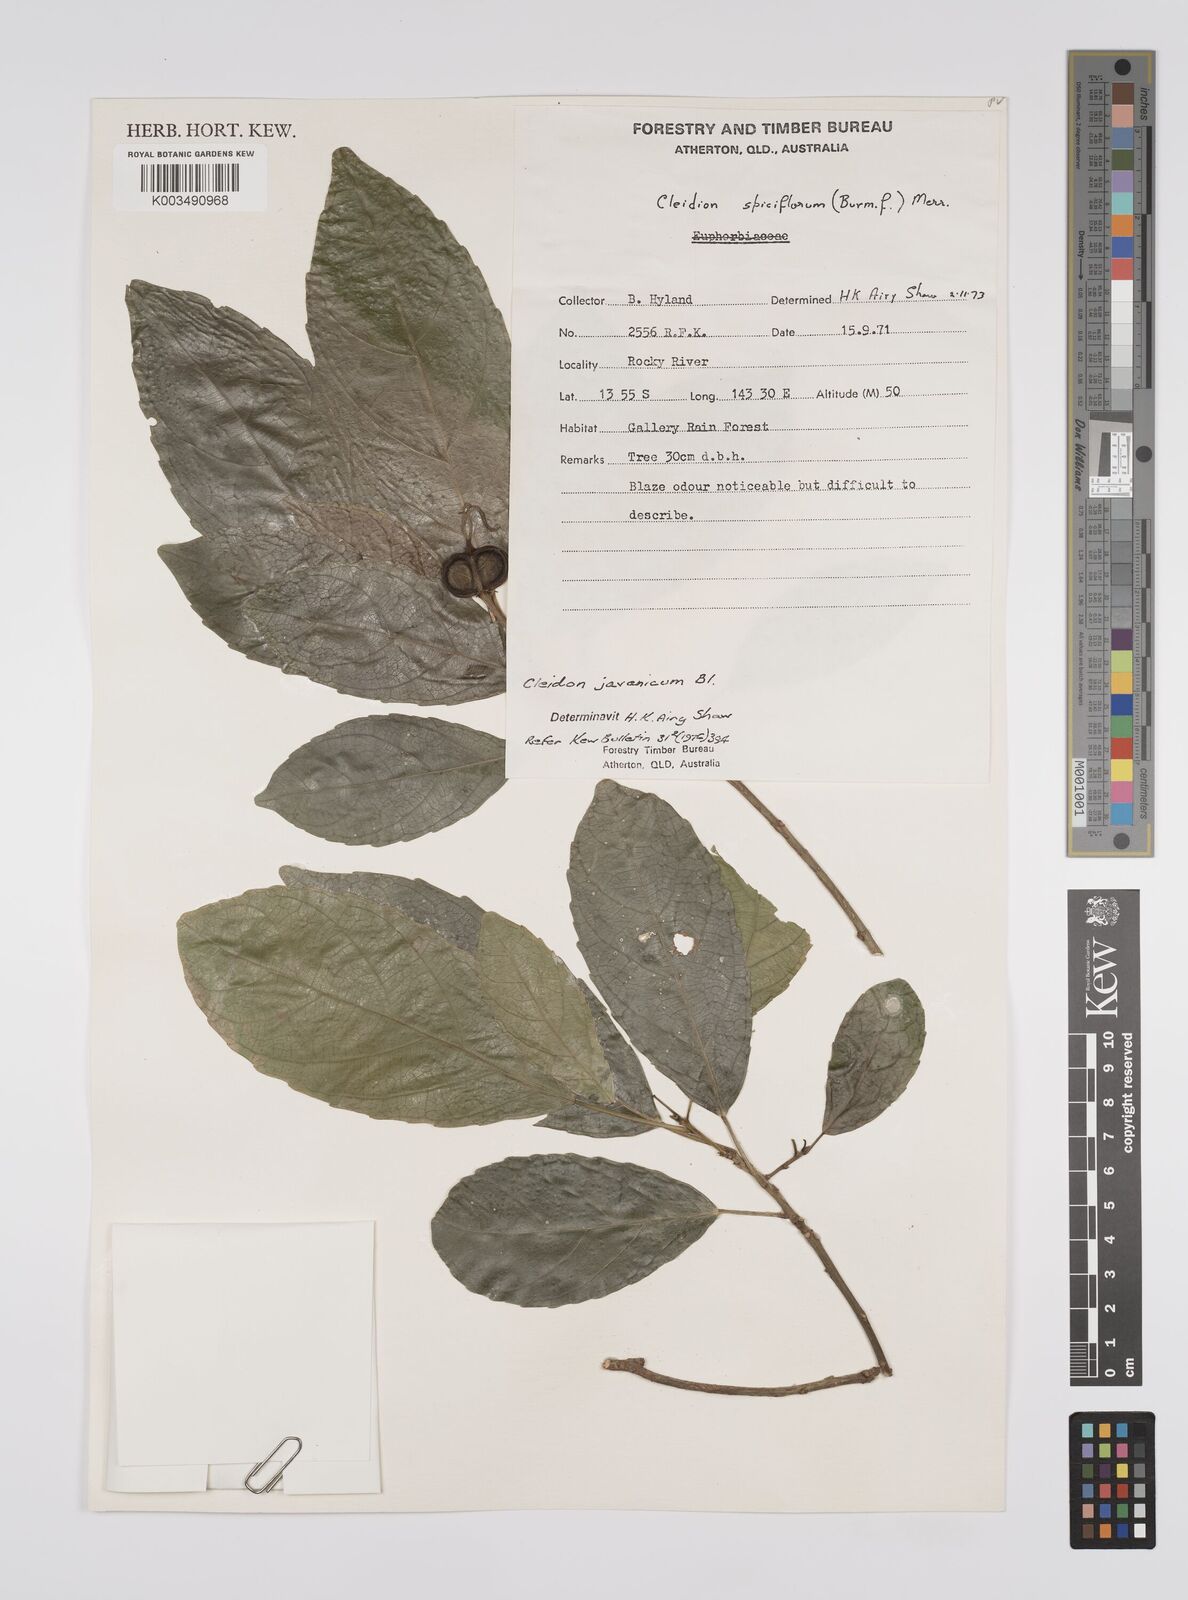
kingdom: Plantae
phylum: Tracheophyta
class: Magnoliopsida
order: Malpighiales
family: Euphorbiaceae
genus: Cleidion
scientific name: Cleidion javanicum
